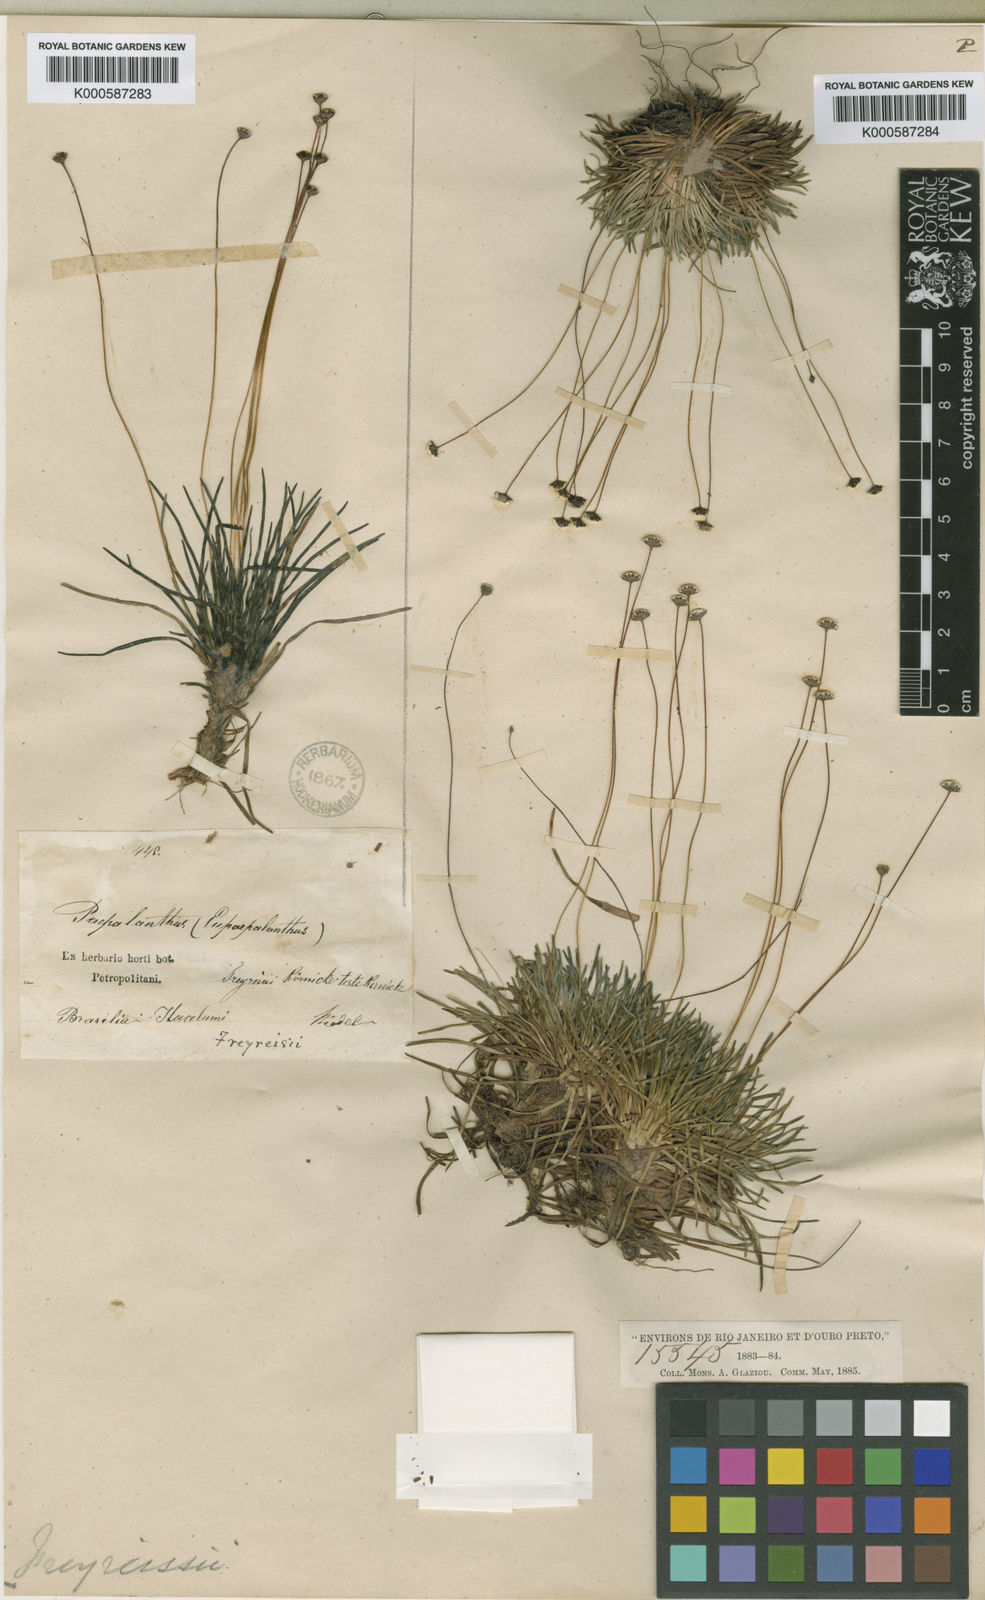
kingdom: Plantae
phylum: Tracheophyta
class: Liliopsida
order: Poales
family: Eriocaulaceae
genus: Paepalanthus
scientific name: Paepalanthus
